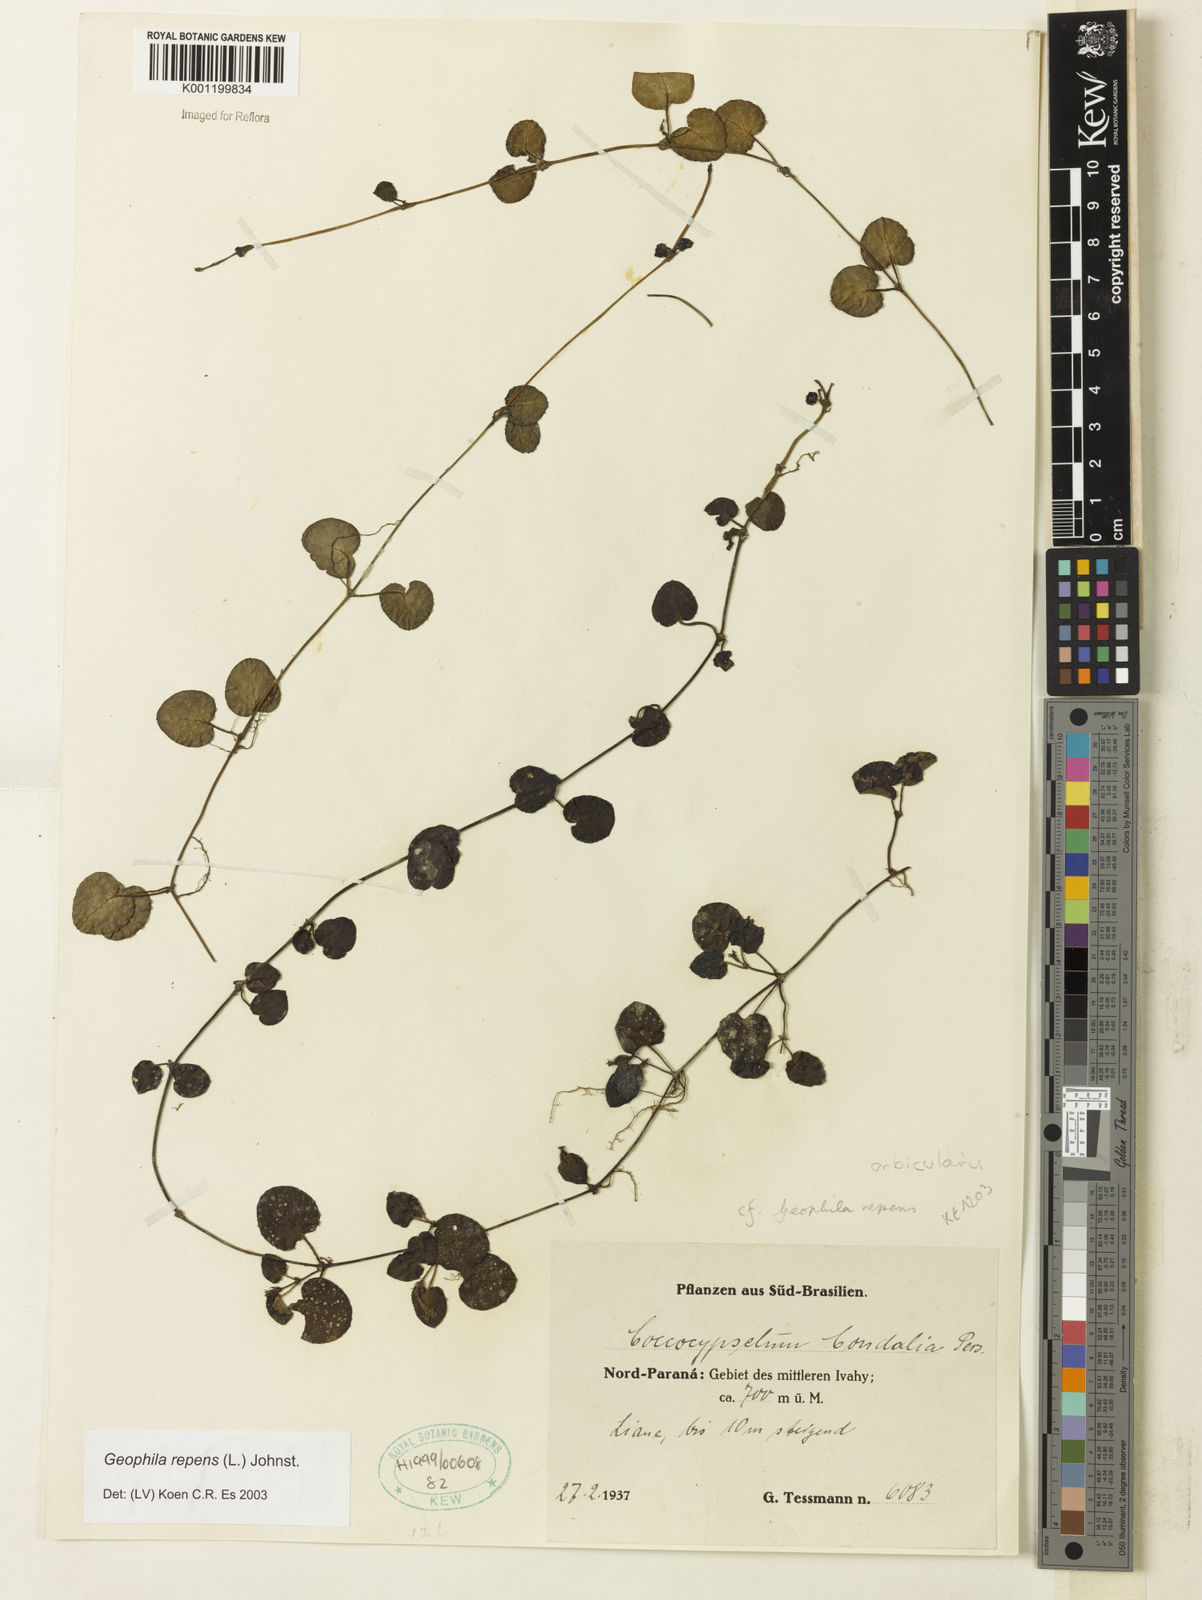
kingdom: Plantae
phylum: Tracheophyta
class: Magnoliopsida
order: Gentianales
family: Rubiaceae
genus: Geophila
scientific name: Geophila repens
